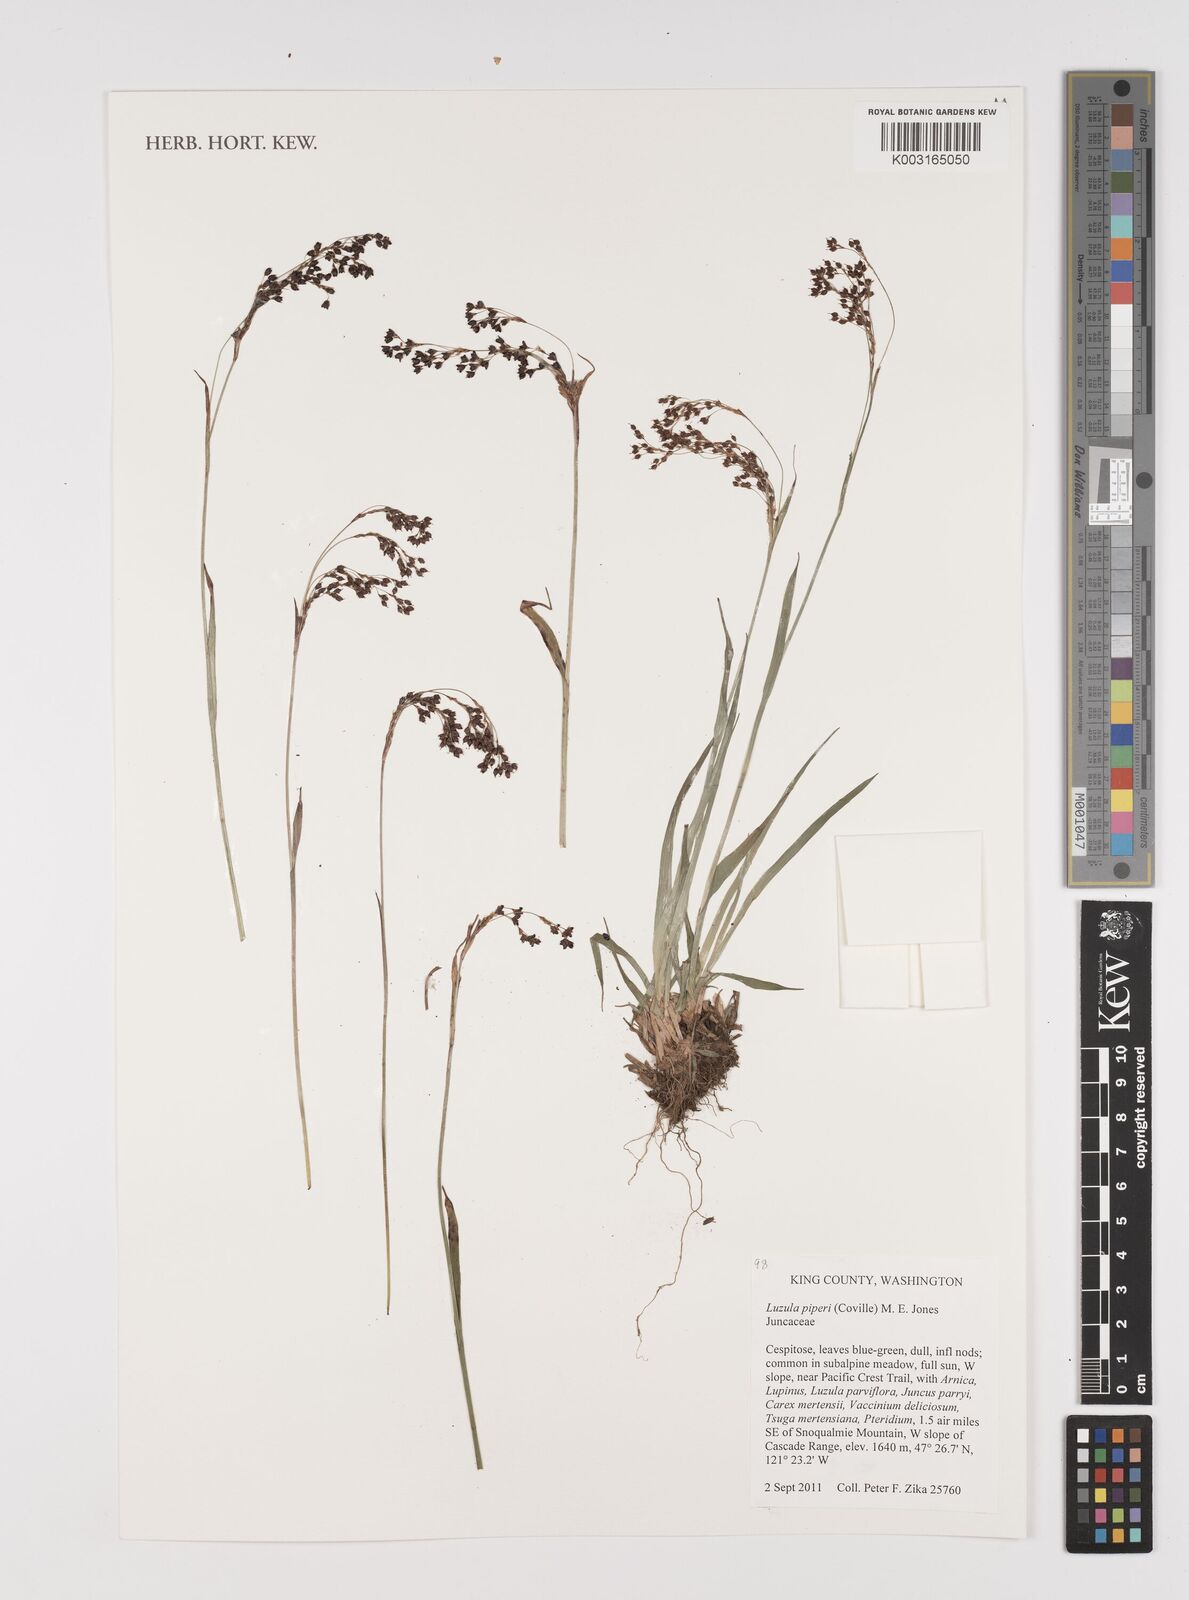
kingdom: Plantae
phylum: Tracheophyta
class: Liliopsida
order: Poales
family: Juncaceae
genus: Luzula
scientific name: Luzula piperi
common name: Piper's wood-rush
